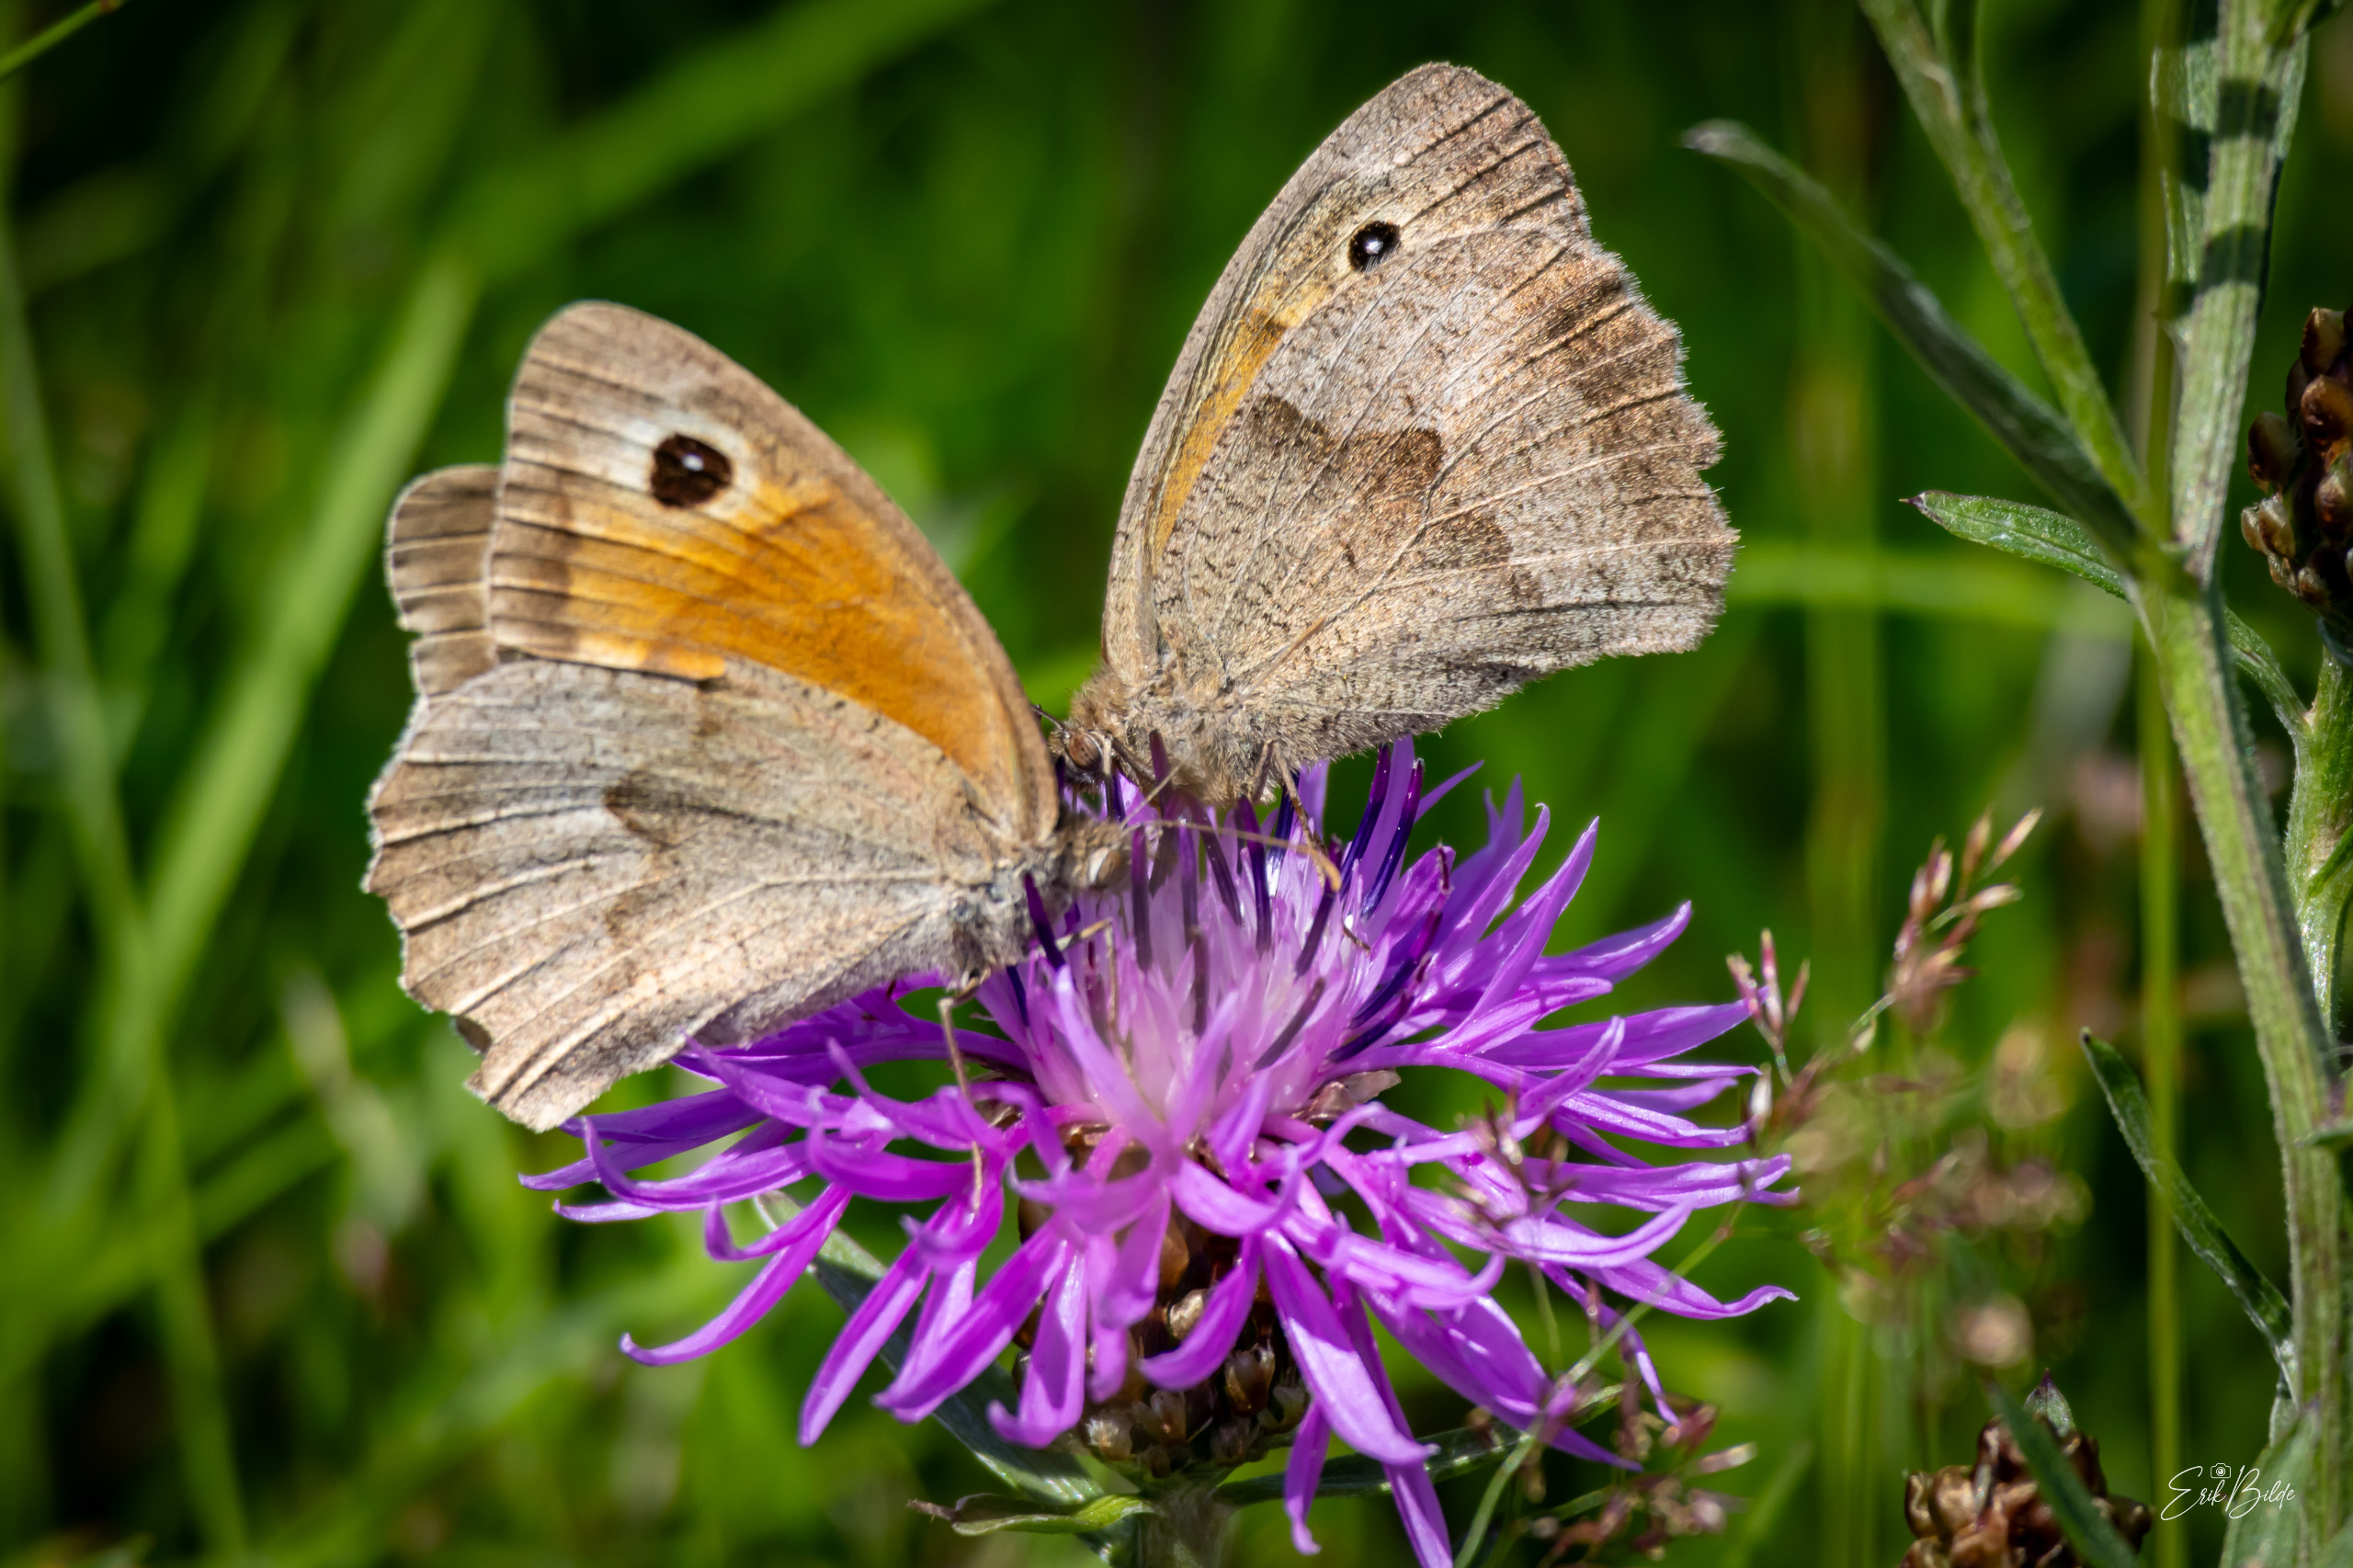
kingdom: Animalia
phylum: Arthropoda
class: Insecta
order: Lepidoptera
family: Nymphalidae
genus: Maniola
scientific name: Maniola jurtina
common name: Græsrandøje
